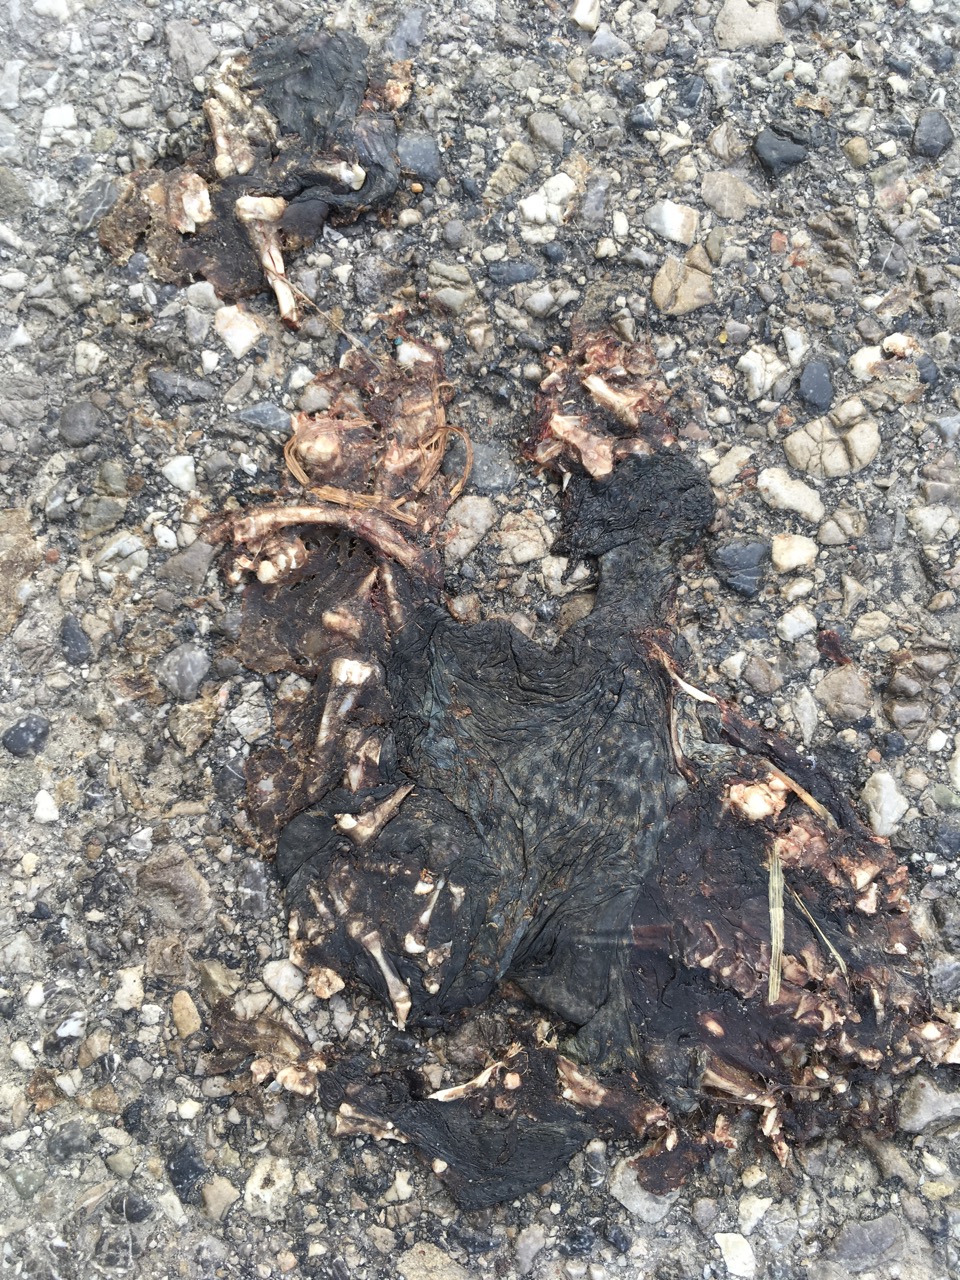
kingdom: Animalia
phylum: Chordata
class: Amphibia
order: Anura
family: Bufonidae
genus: Bufo
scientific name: Bufo bufo
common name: Common toad
